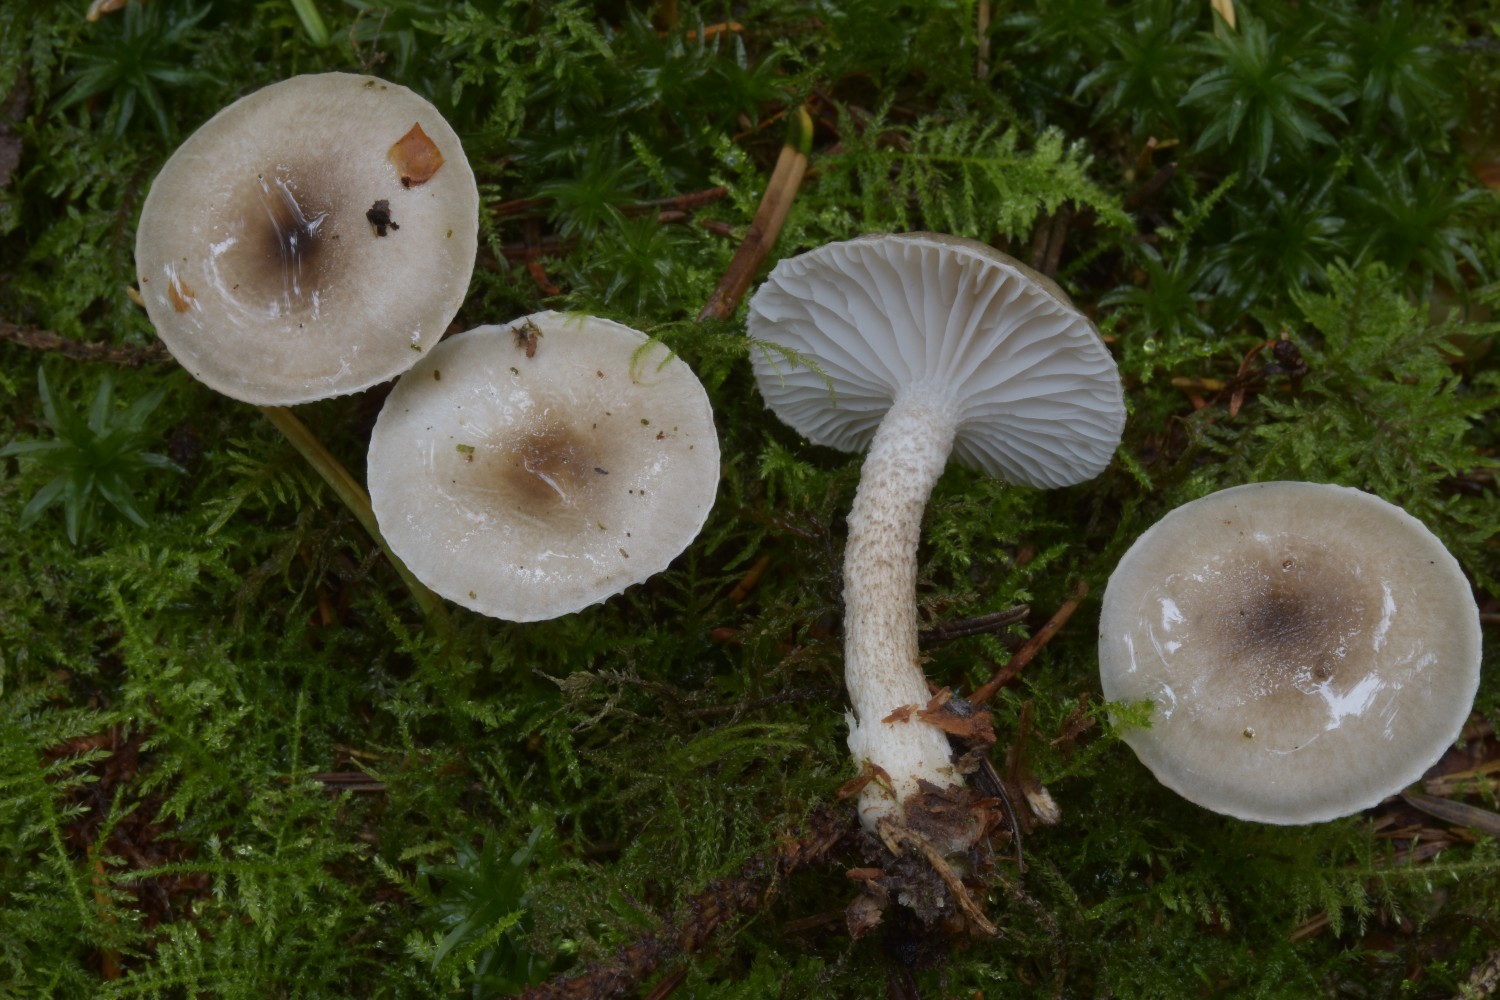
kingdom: Fungi
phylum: Basidiomycota
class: Agaricomycetes
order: Agaricales
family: Hygrophoraceae
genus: Hygrophorus
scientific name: Hygrophorus pustulatus
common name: mørkprikket sneglehat
